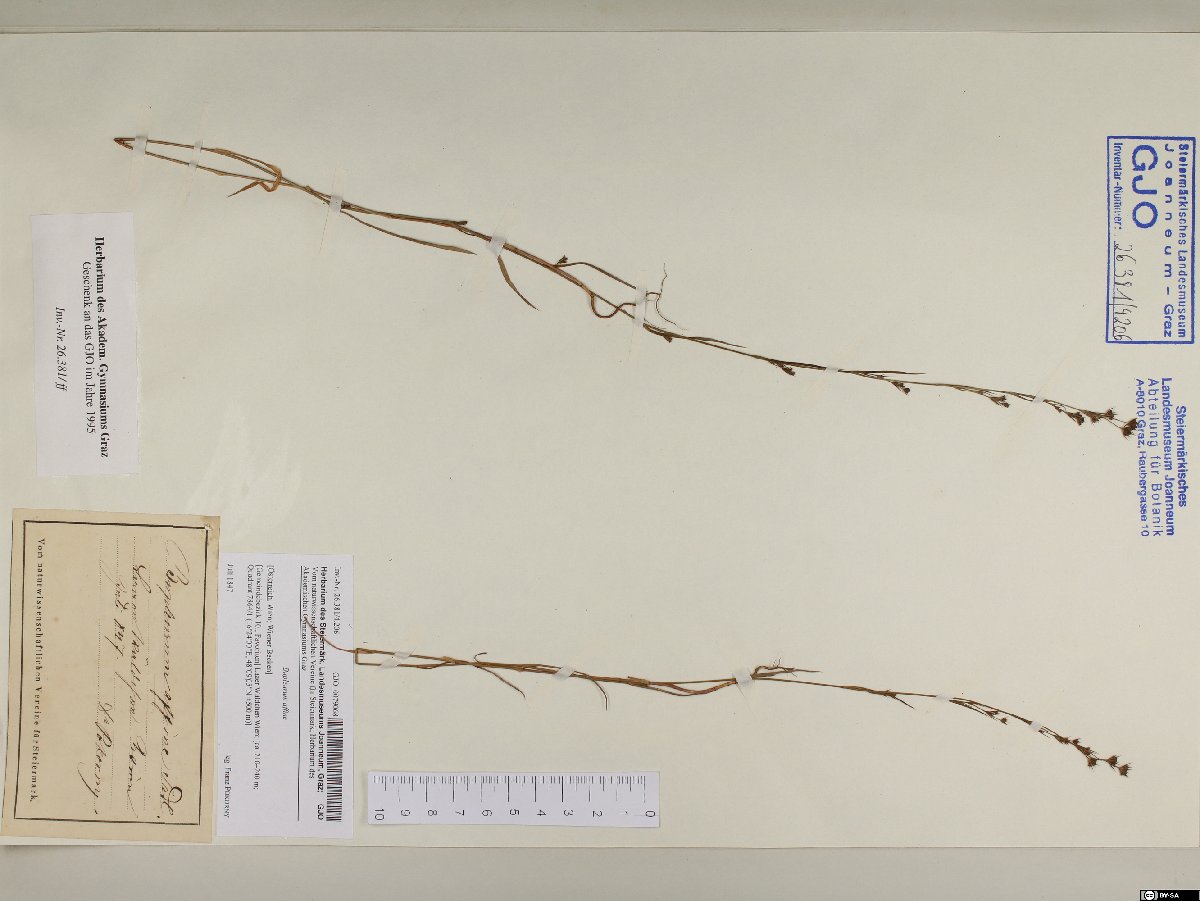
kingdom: Plantae
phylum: Tracheophyta
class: Magnoliopsida
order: Apiales
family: Apiaceae
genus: Bupleurum
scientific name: Bupleurum affine
